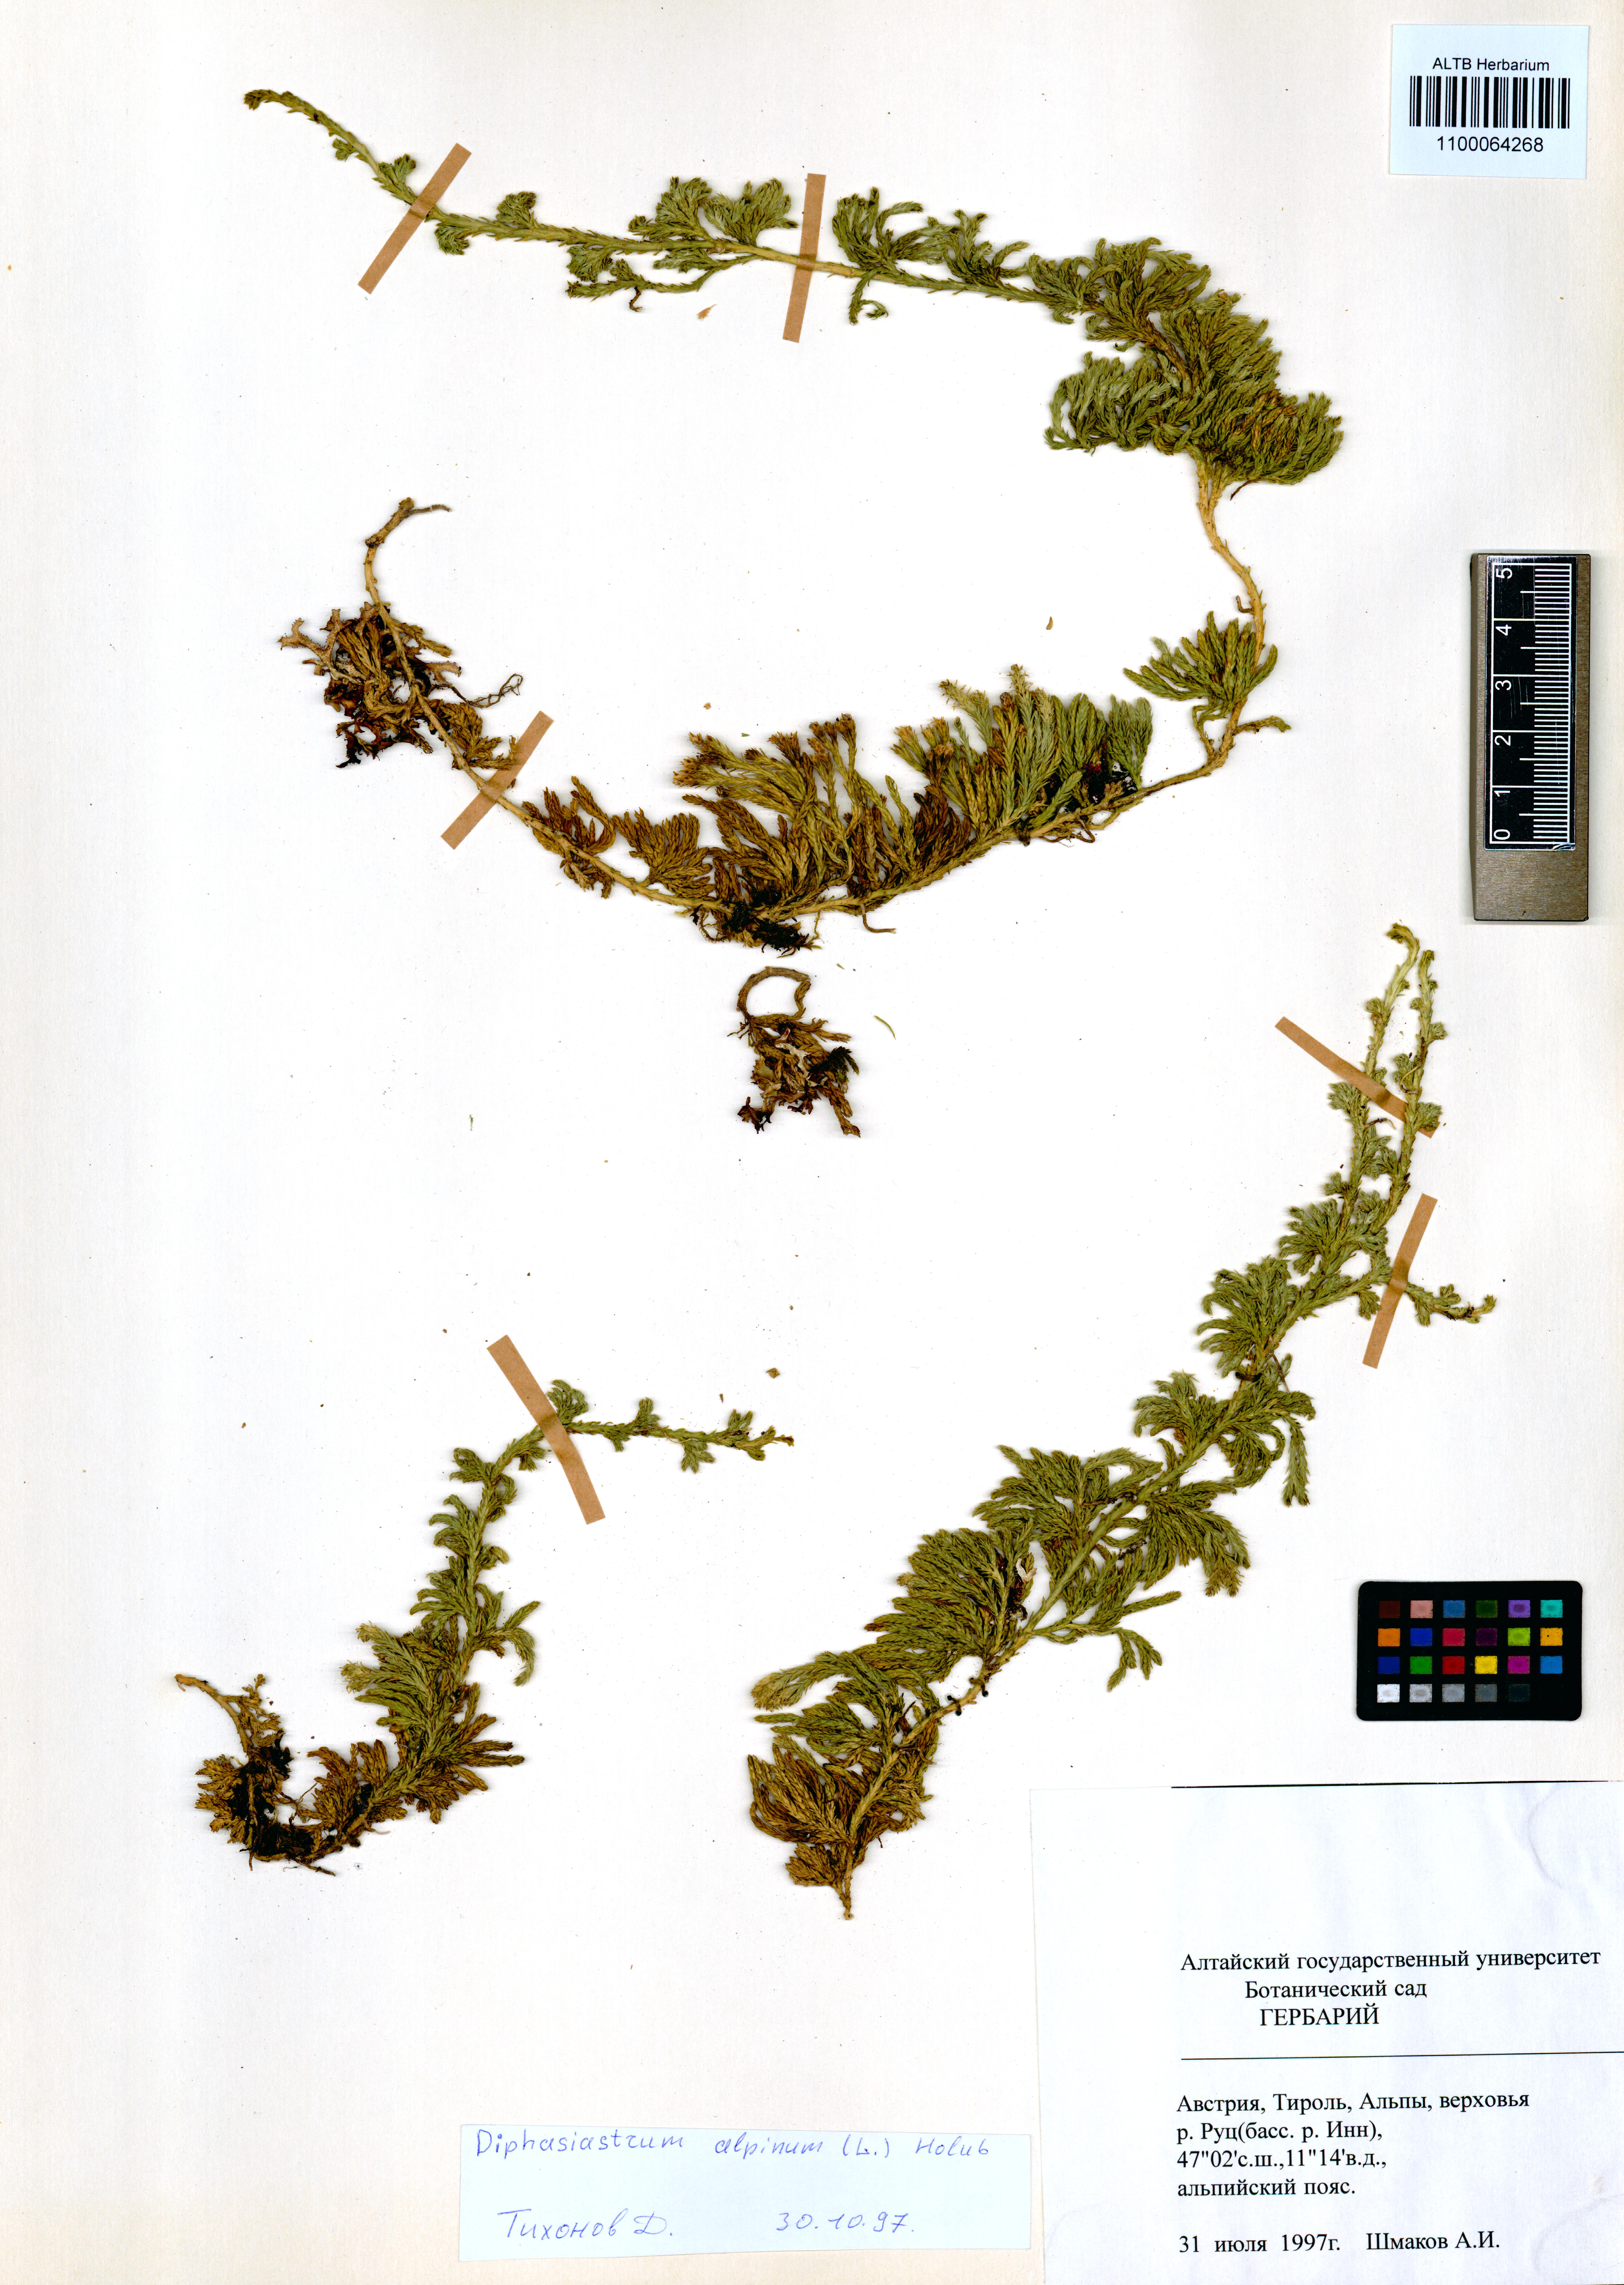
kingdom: Plantae
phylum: Tracheophyta
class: Lycopodiopsida
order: Lycopodiales
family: Lycopodiaceae
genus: Diphasiastrum
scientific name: Diphasiastrum alpinum
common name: Alpine clubmoss
